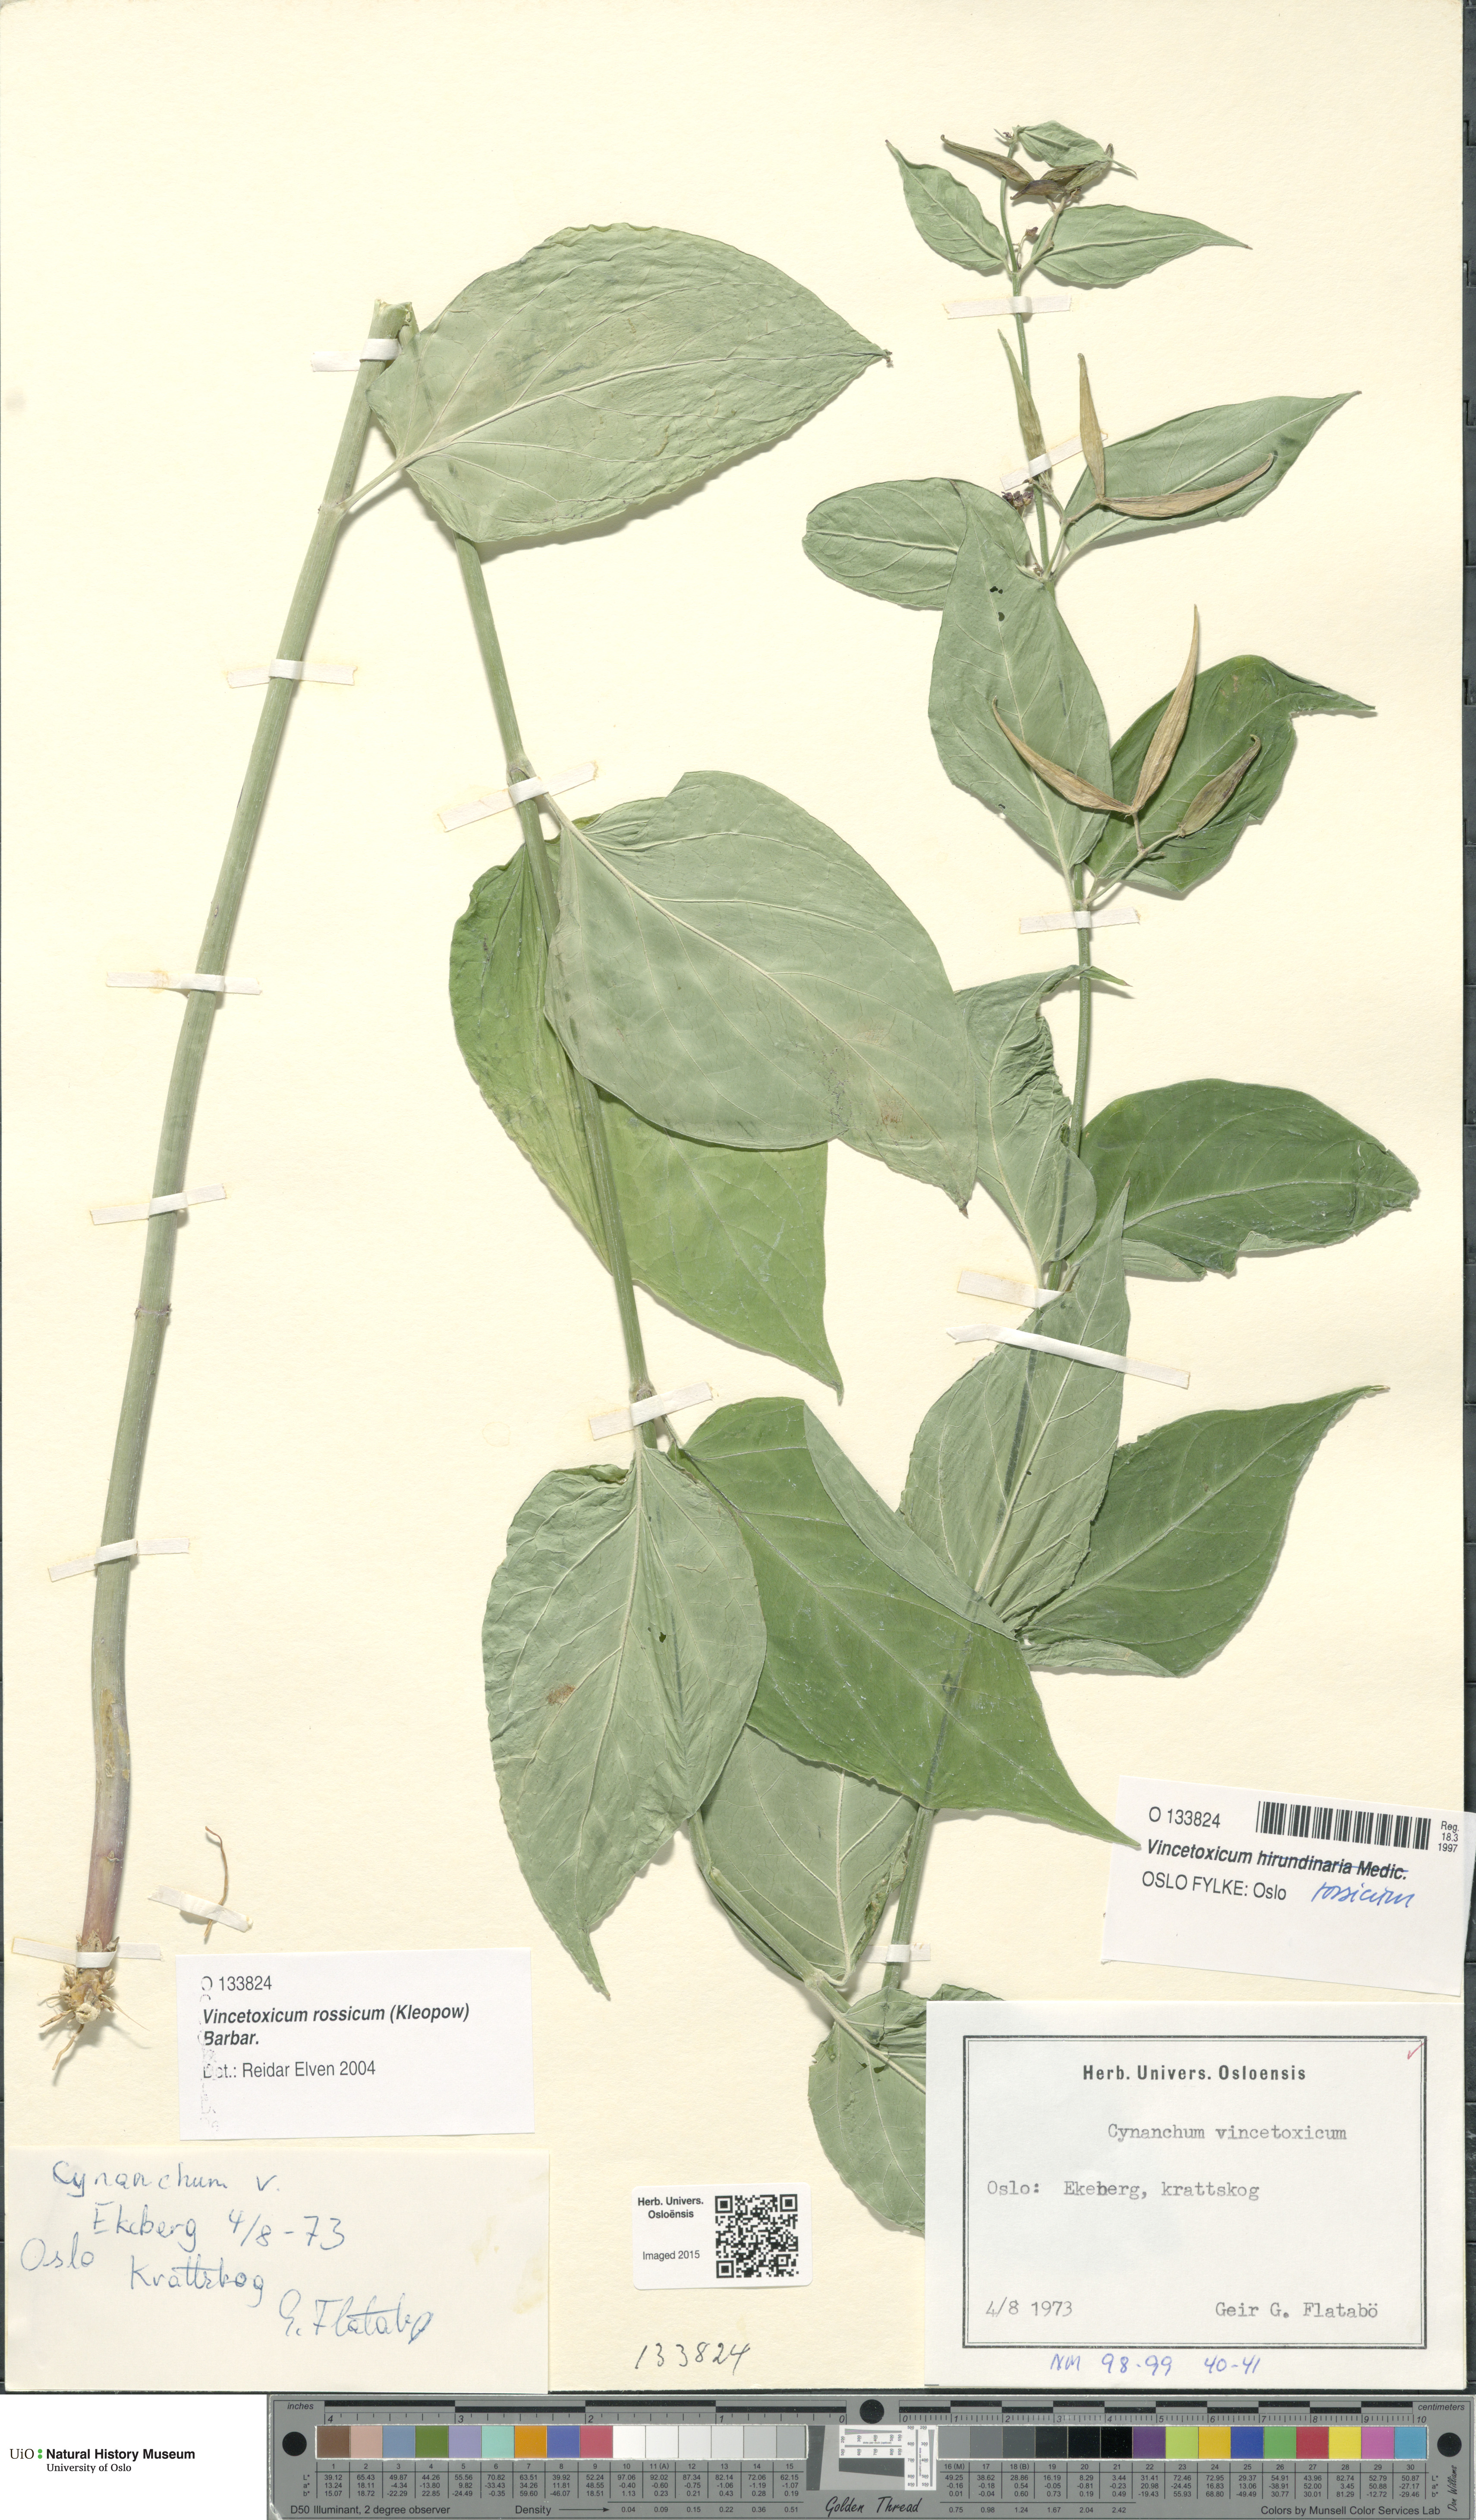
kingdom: Plantae
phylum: Tracheophyta
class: Magnoliopsida
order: Gentianales
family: Apocynaceae
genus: Vincetoxicum
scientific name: Vincetoxicum rossicum
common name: Dog-strangling vine
